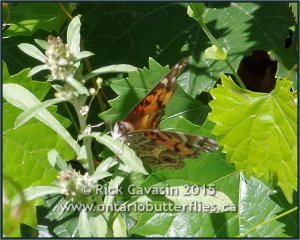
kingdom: Animalia
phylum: Arthropoda
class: Insecta
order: Lepidoptera
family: Nymphalidae
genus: Vanessa
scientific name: Vanessa virginiensis
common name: American Lady
